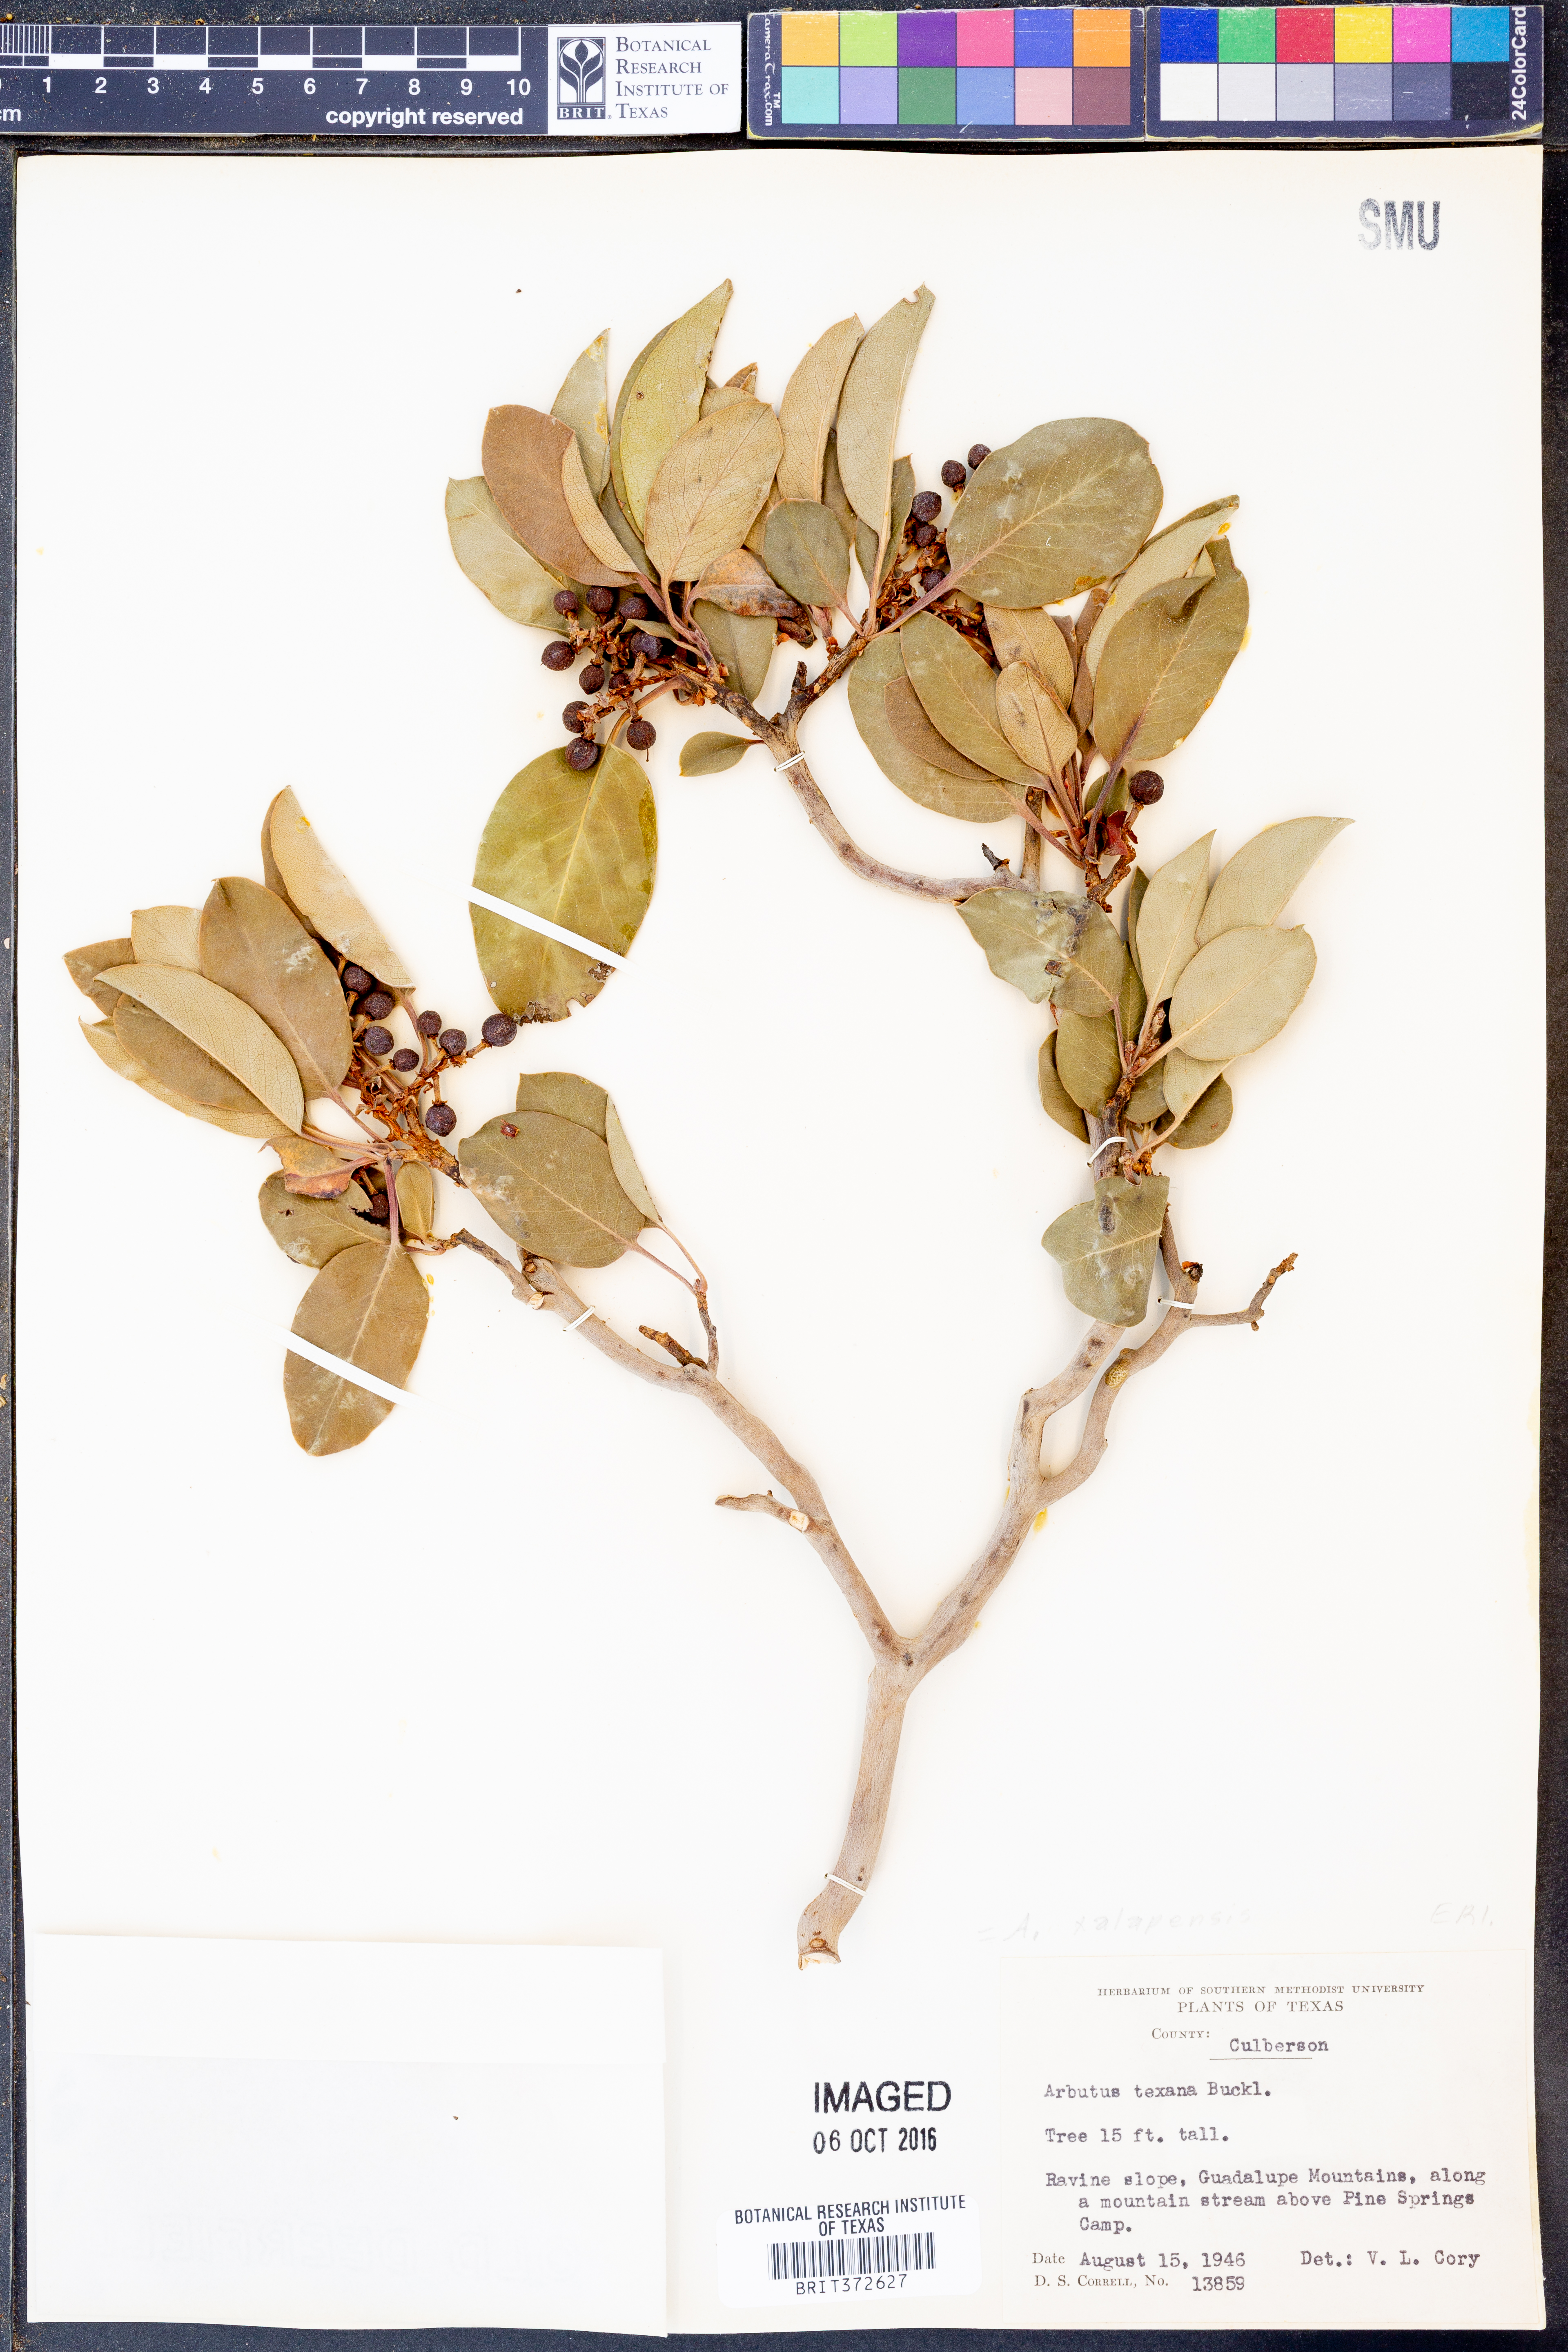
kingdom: Plantae
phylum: Tracheophyta
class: Magnoliopsida
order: Ericales
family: Ericaceae
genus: Arbutus
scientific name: Arbutus xalapensis
